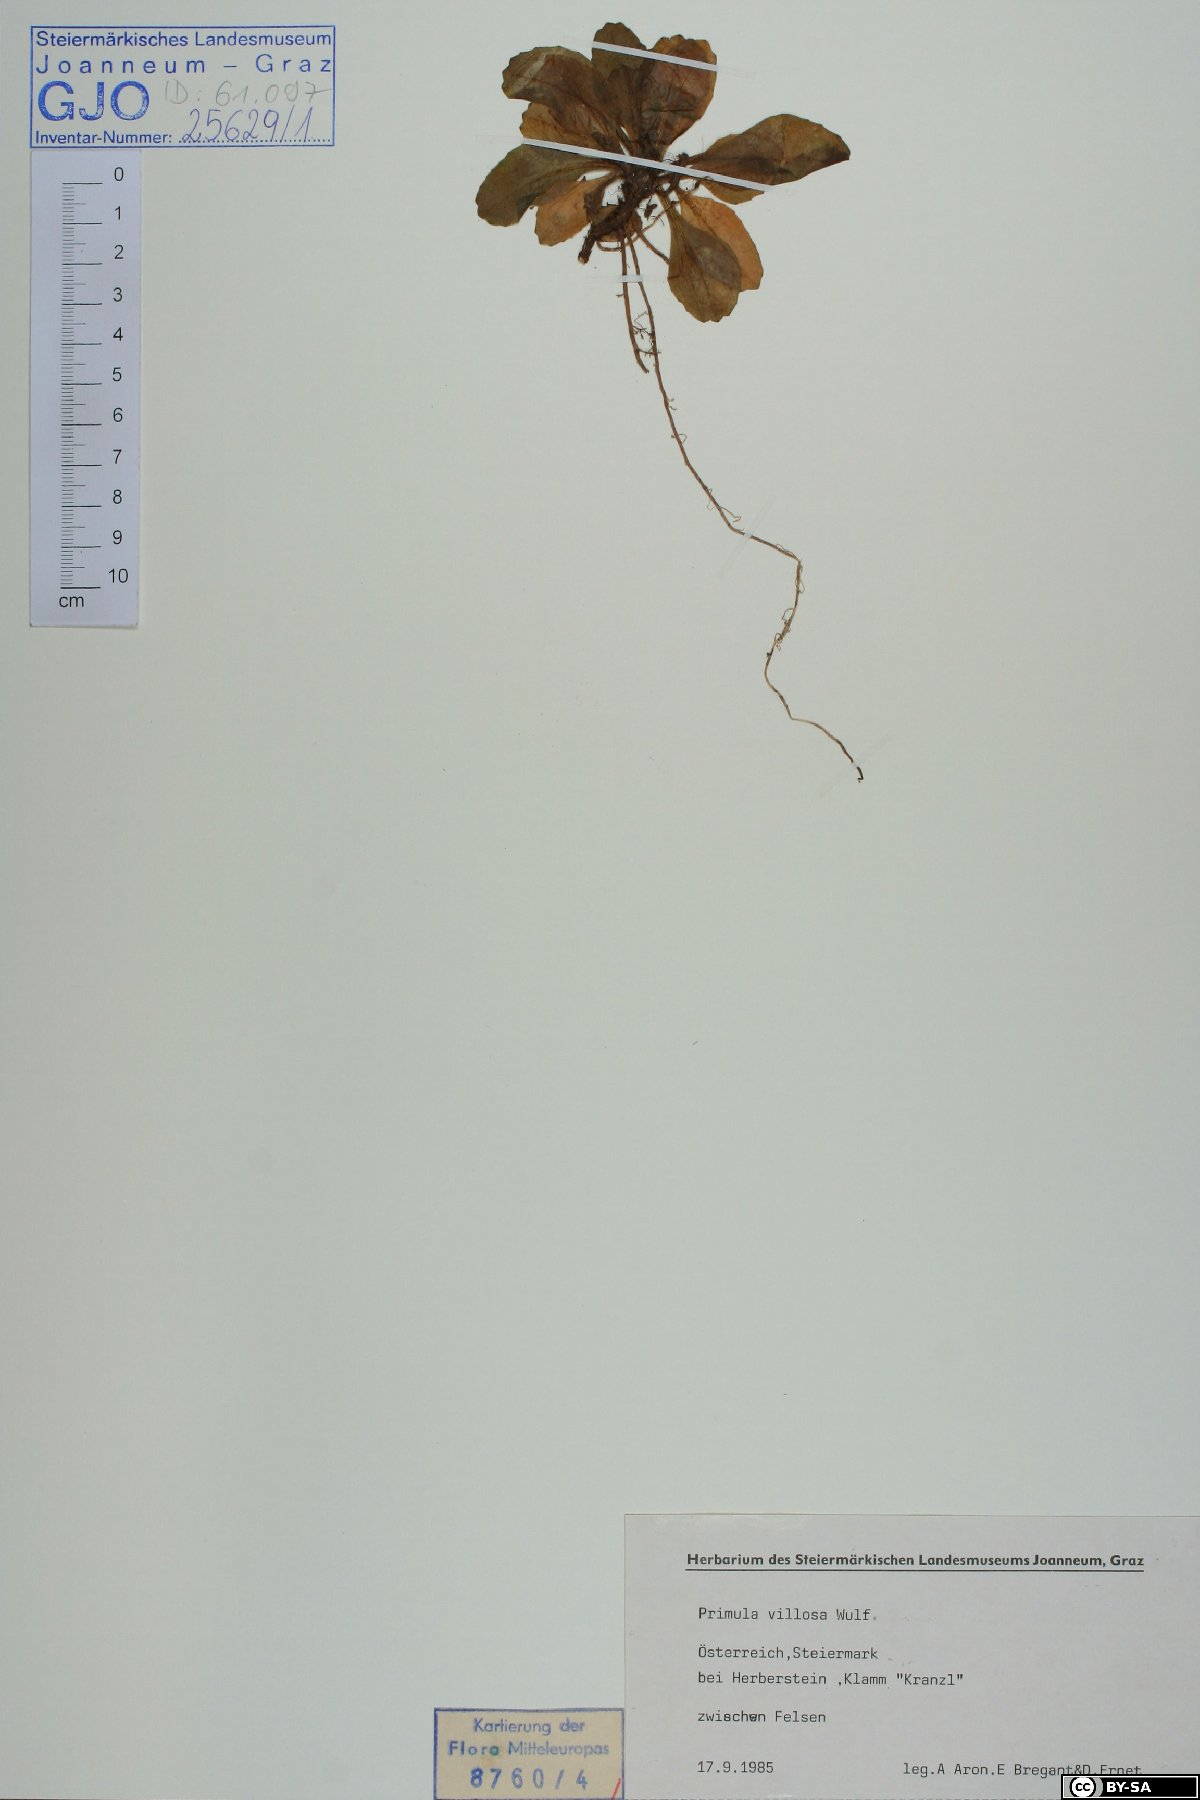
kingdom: Plantae
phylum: Tracheophyta
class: Magnoliopsida
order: Ericales
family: Primulaceae
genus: Primula
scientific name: Primula villosa
